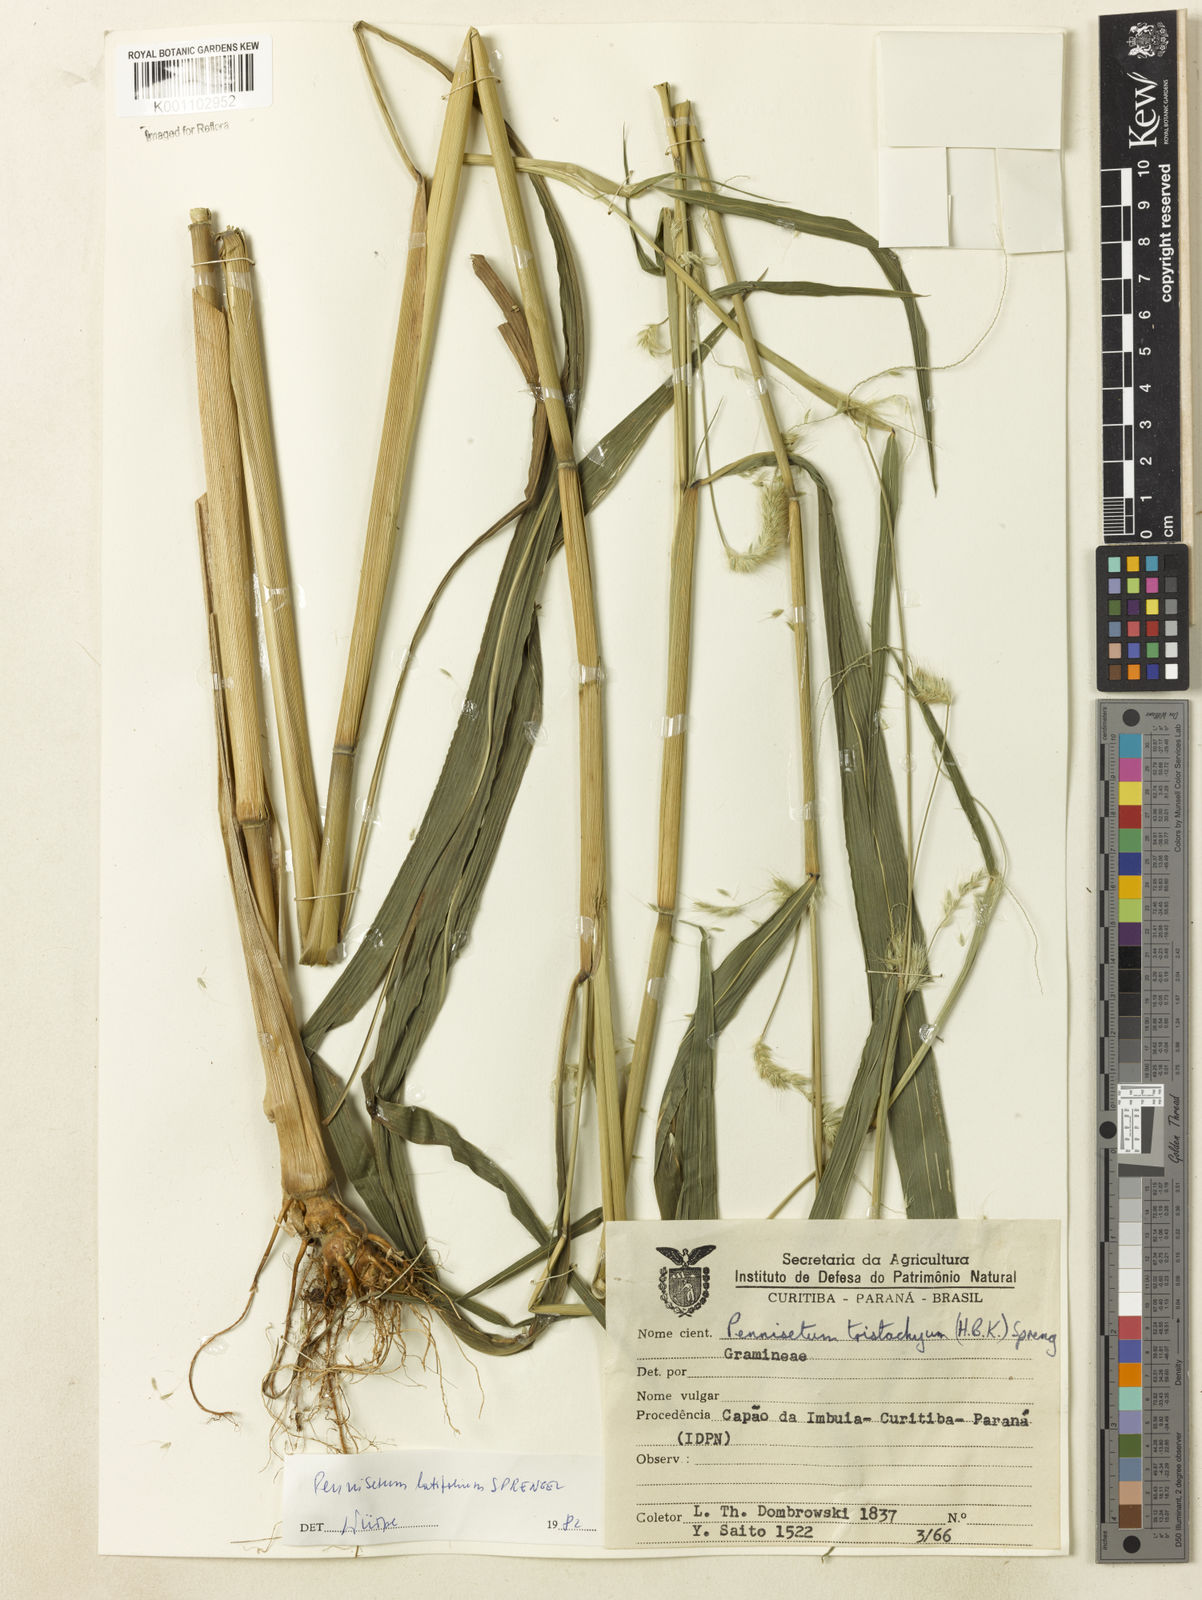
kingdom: Plantae
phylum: Tracheophyta
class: Liliopsida
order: Poales
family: Poaceae
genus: Cenchrus
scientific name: Cenchrus latifolius
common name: Sandbur
